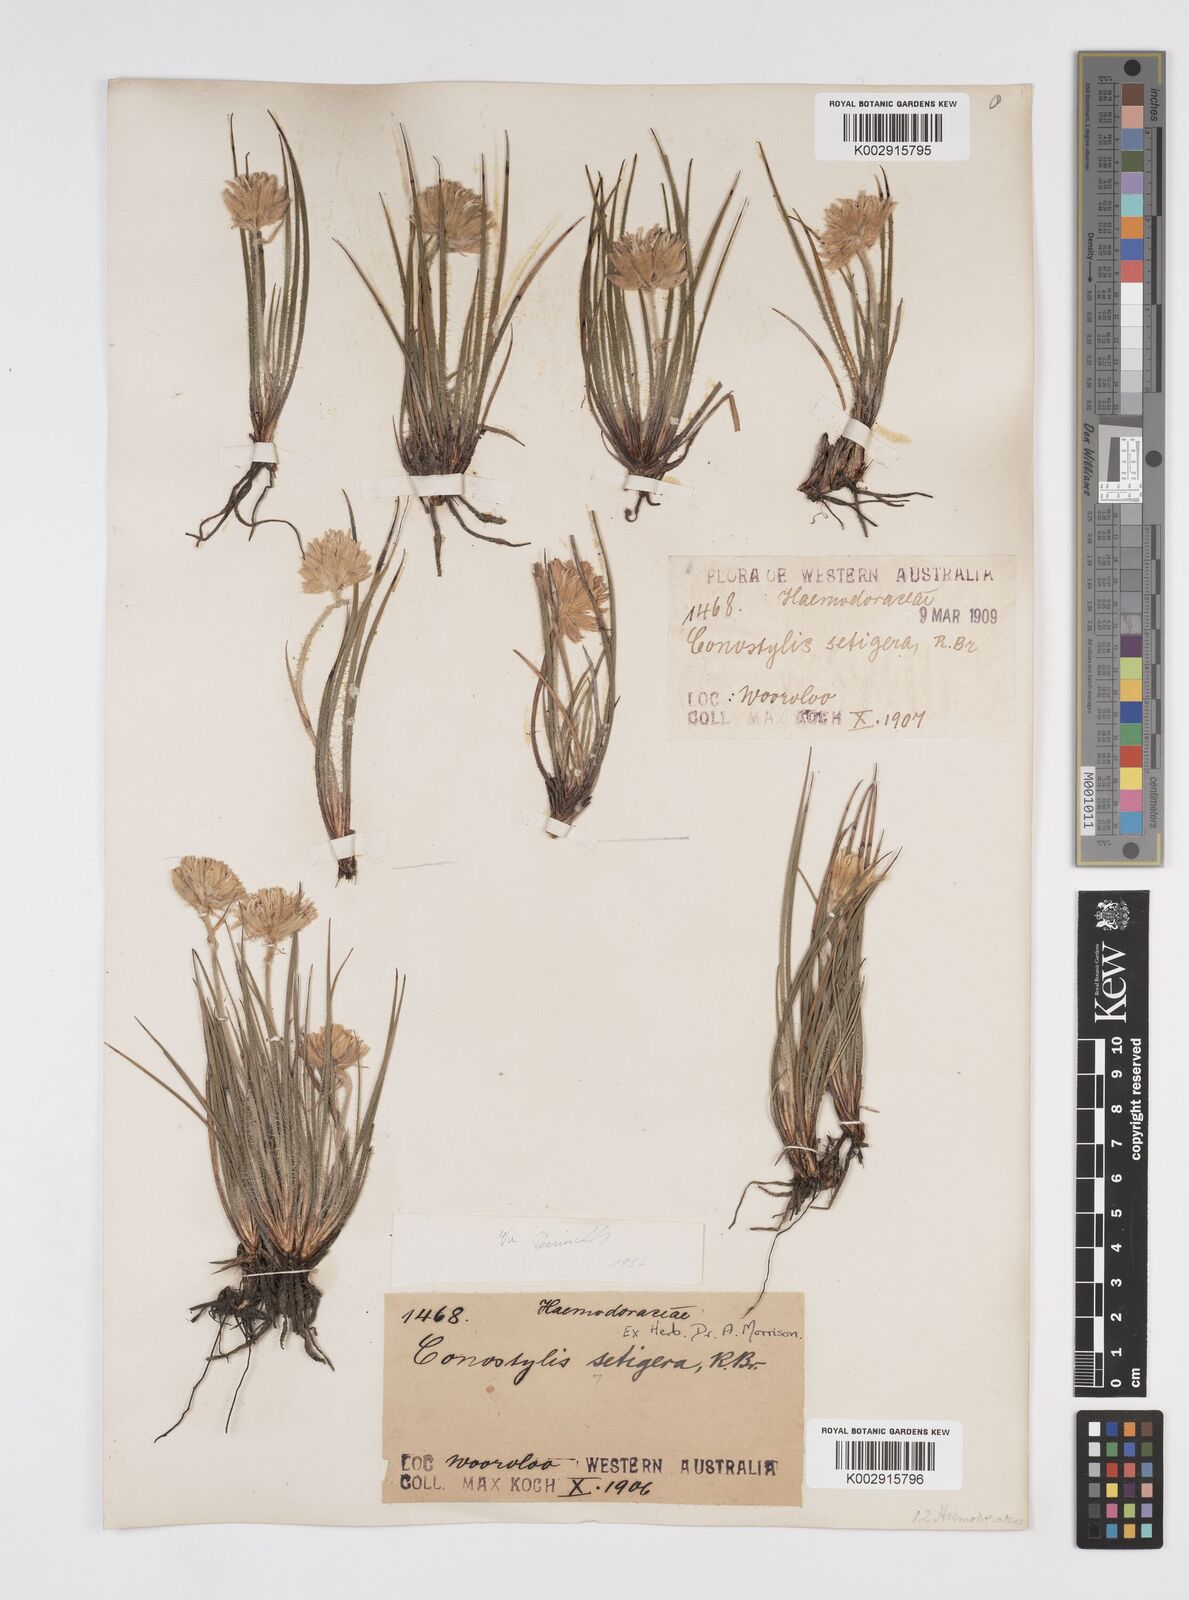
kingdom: Plantae
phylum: Tracheophyta
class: Liliopsida
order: Commelinales
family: Haemodoraceae
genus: Conostylis
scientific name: Conostylis setigera
